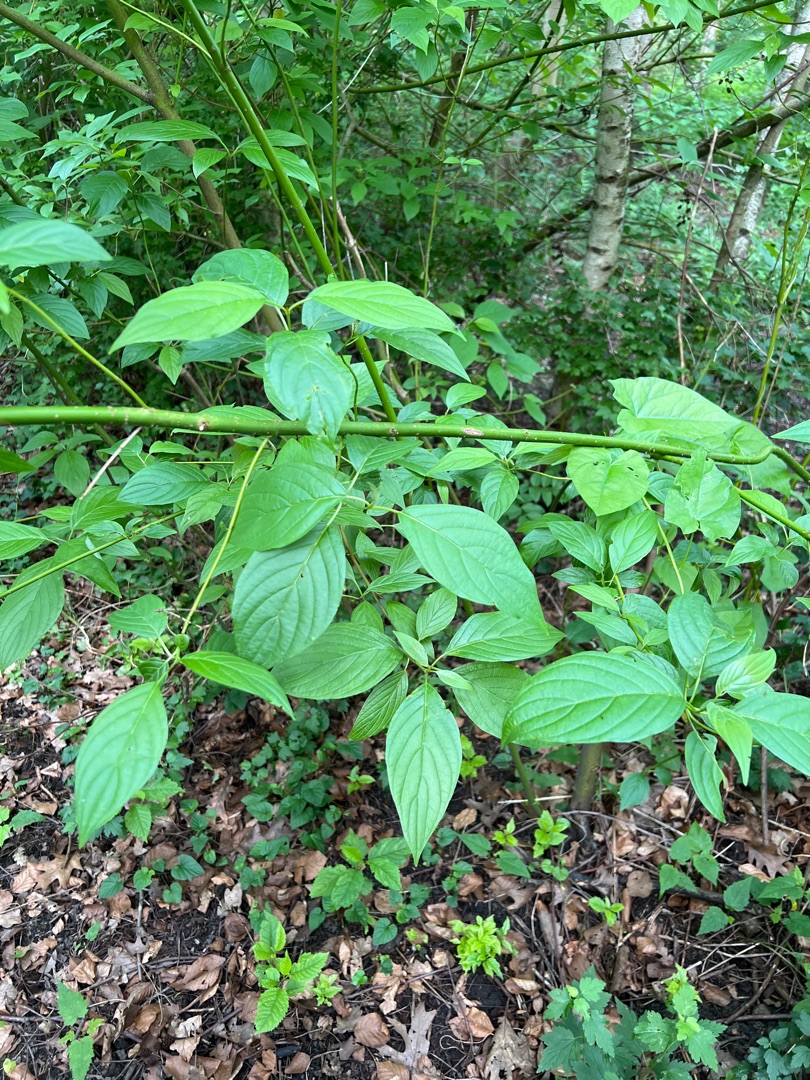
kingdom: Plantae
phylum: Tracheophyta
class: Magnoliopsida
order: Cornales
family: Cornaceae
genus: Cornus
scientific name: Cornus sericea
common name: Krybende kornel
